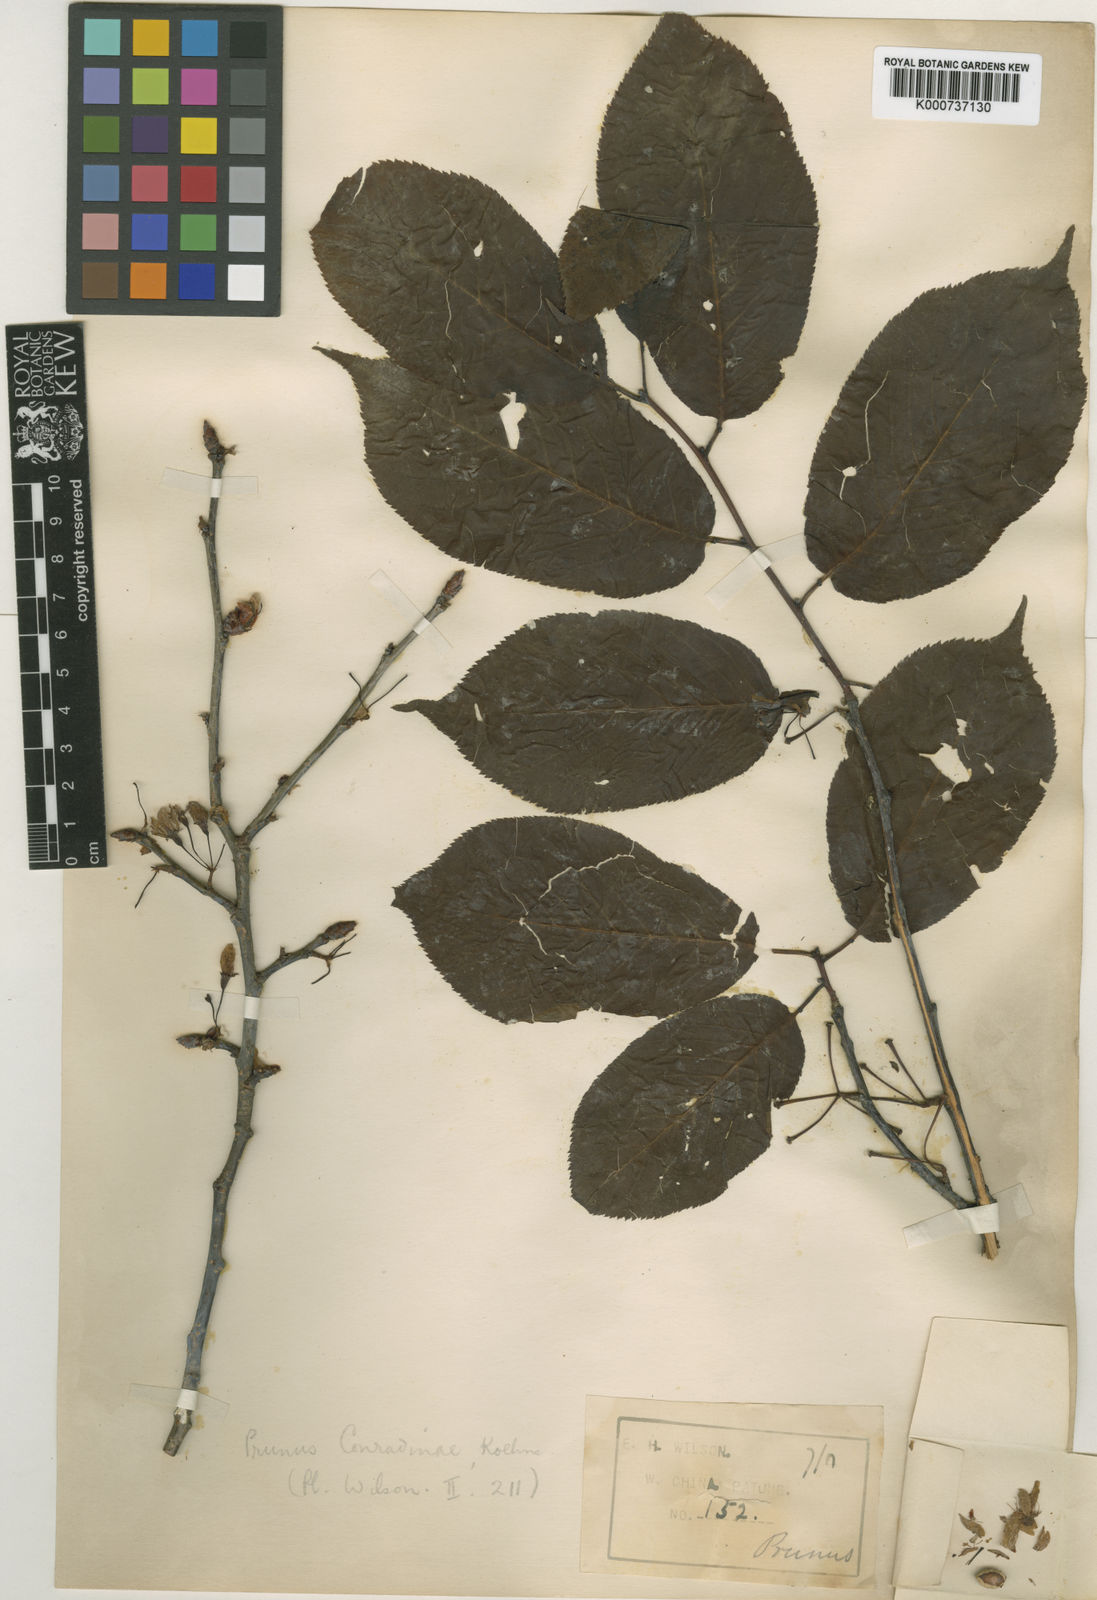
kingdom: Plantae
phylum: Tracheophyta
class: Magnoliopsida
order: Rosales
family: Rosaceae
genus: Prunus
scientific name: Prunus conradinae
